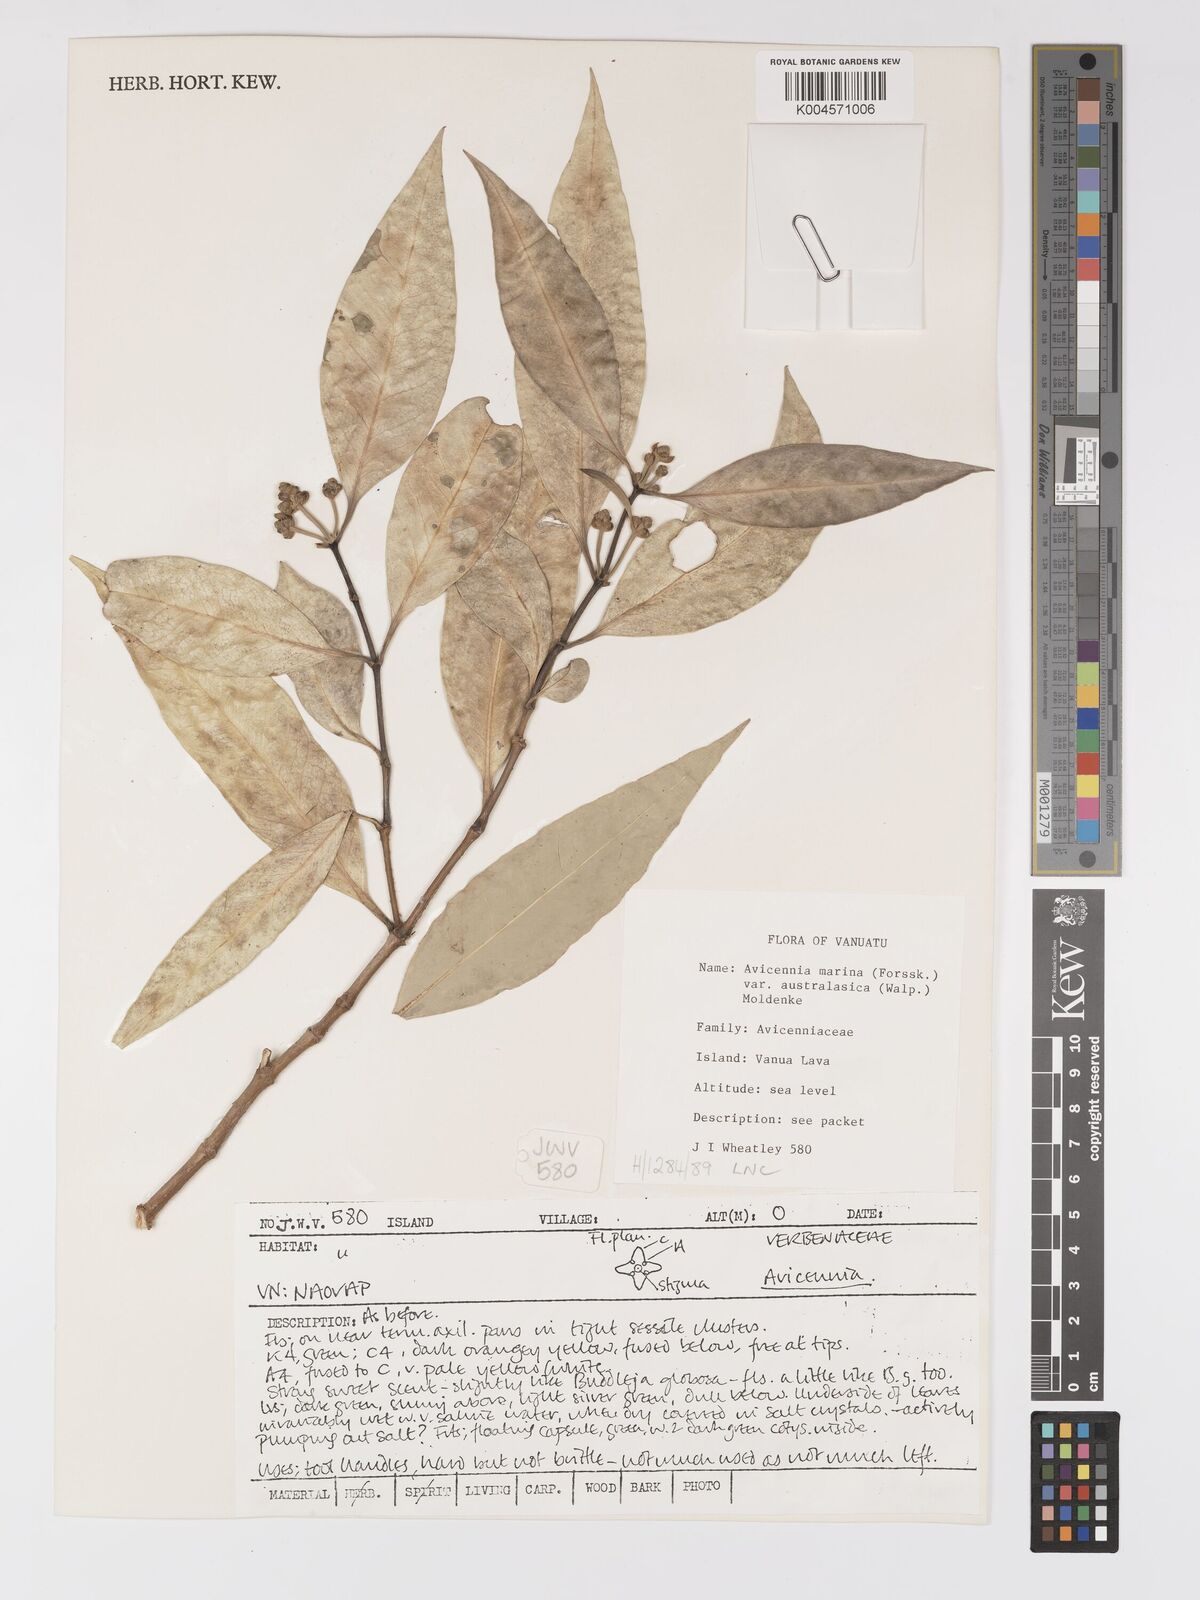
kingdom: Plantae
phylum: Tracheophyta
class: Magnoliopsida
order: Lamiales
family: Acanthaceae
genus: Avicennia
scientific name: Avicennia marina
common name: Gray mangrove
